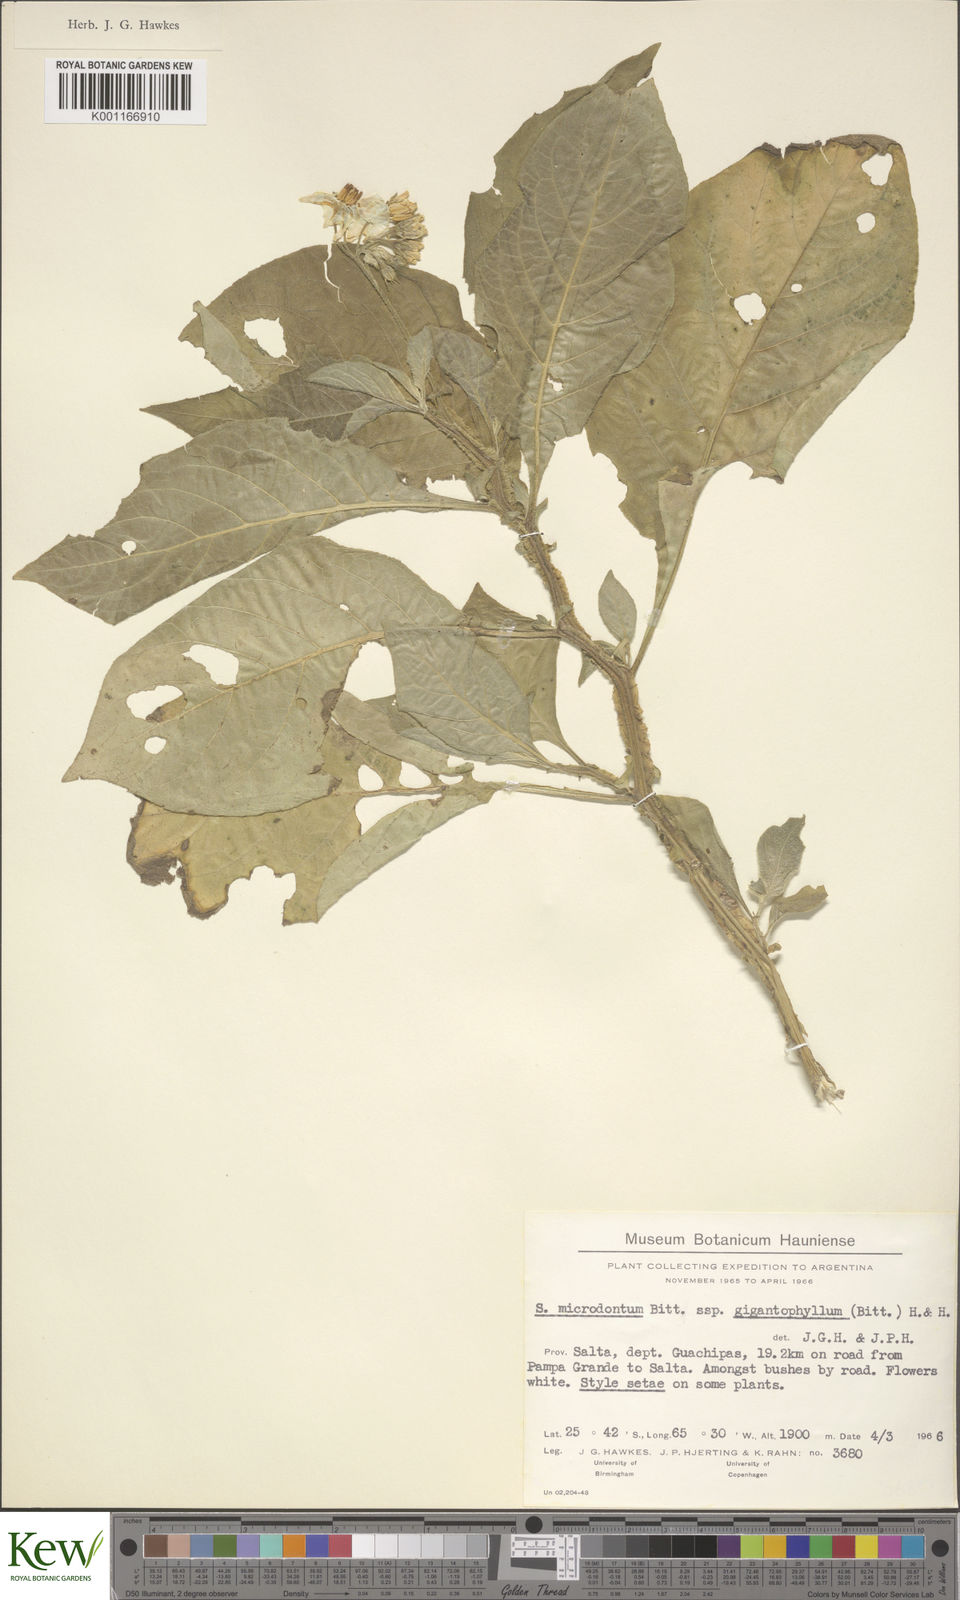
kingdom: Plantae
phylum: Tracheophyta
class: Magnoliopsida
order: Solanales
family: Solanaceae
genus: Solanum
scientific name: Solanum microdontum
